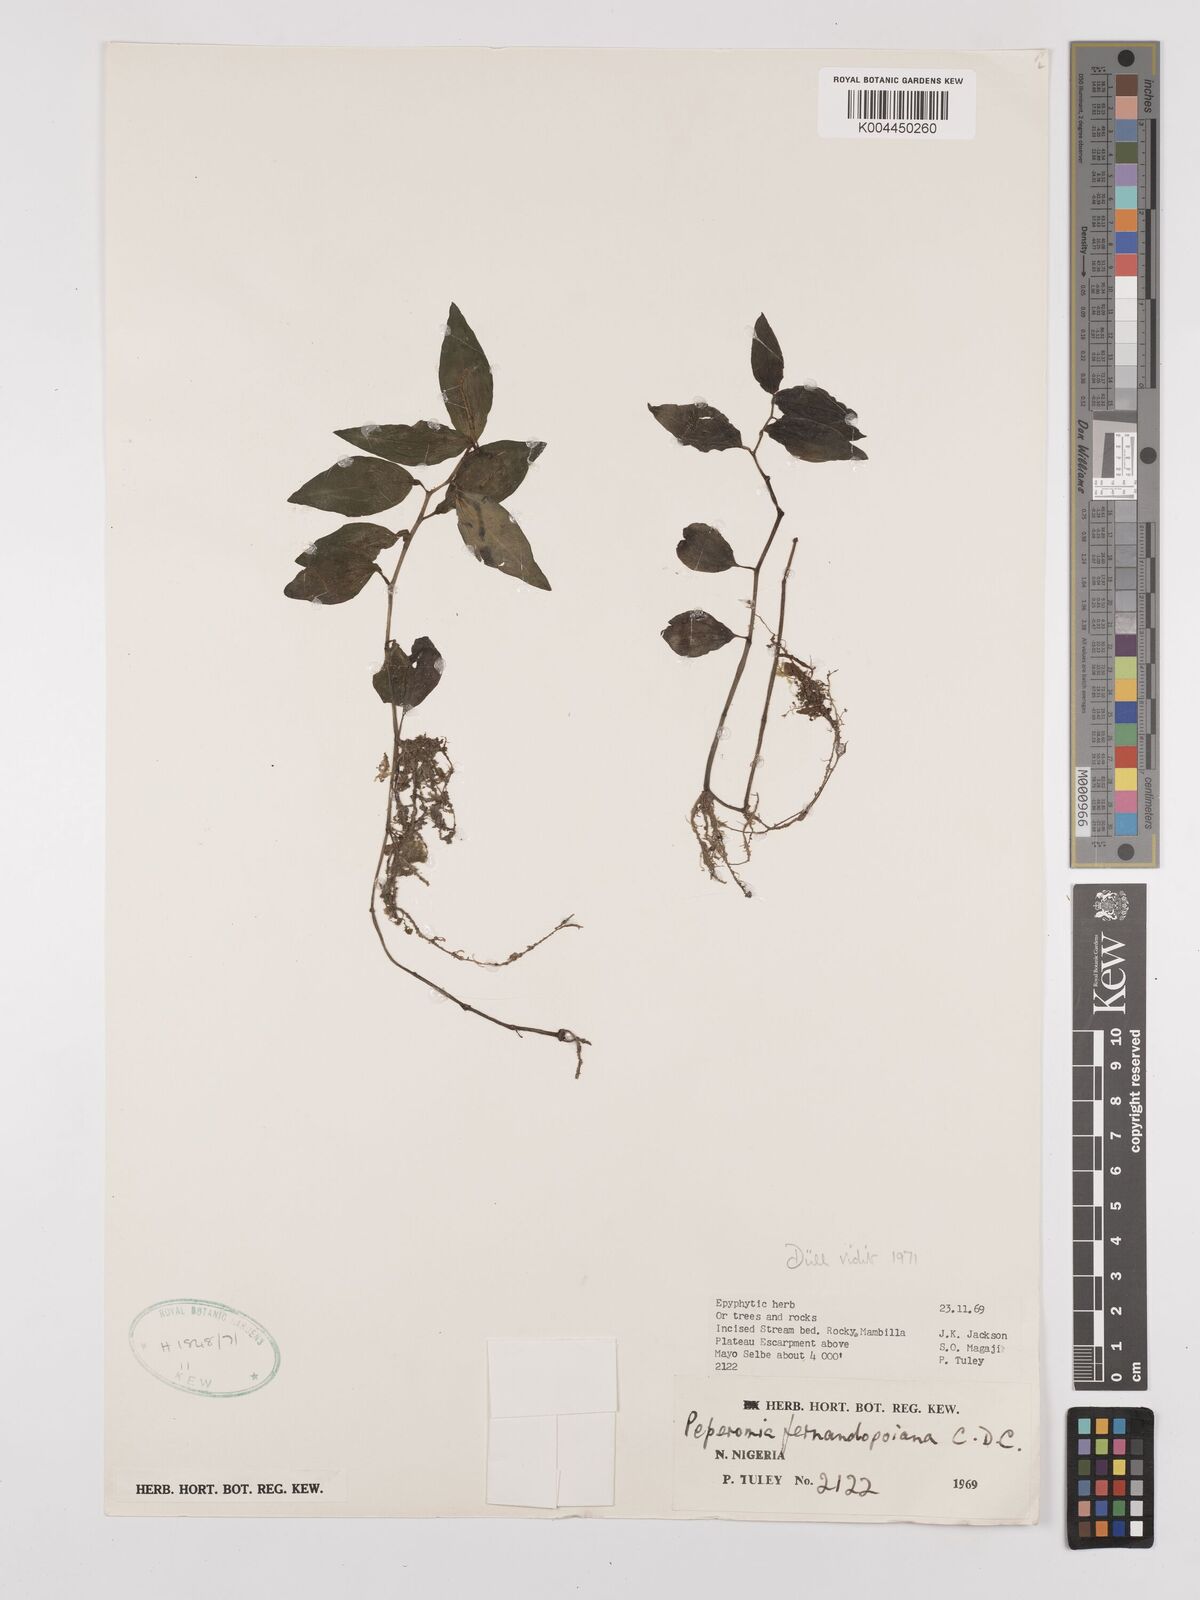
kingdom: Plantae
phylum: Tracheophyta
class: Magnoliopsida
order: Piperales
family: Piperaceae
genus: Peperomia
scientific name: Peperomia fernandeziana
